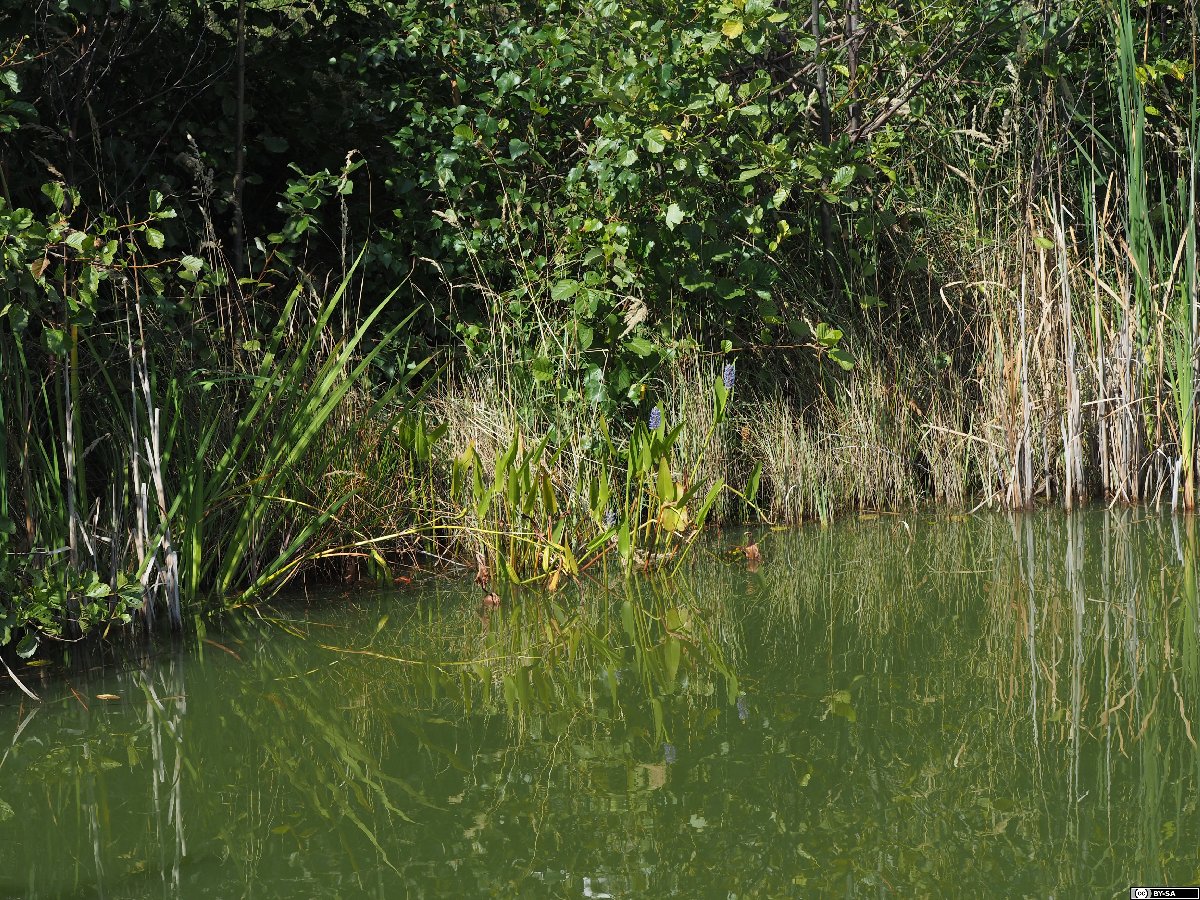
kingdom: Plantae
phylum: Tracheophyta
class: Liliopsida
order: Commelinales
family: Pontederiaceae
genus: Pontederia
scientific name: Pontederia cordata
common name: Pickerelweed
